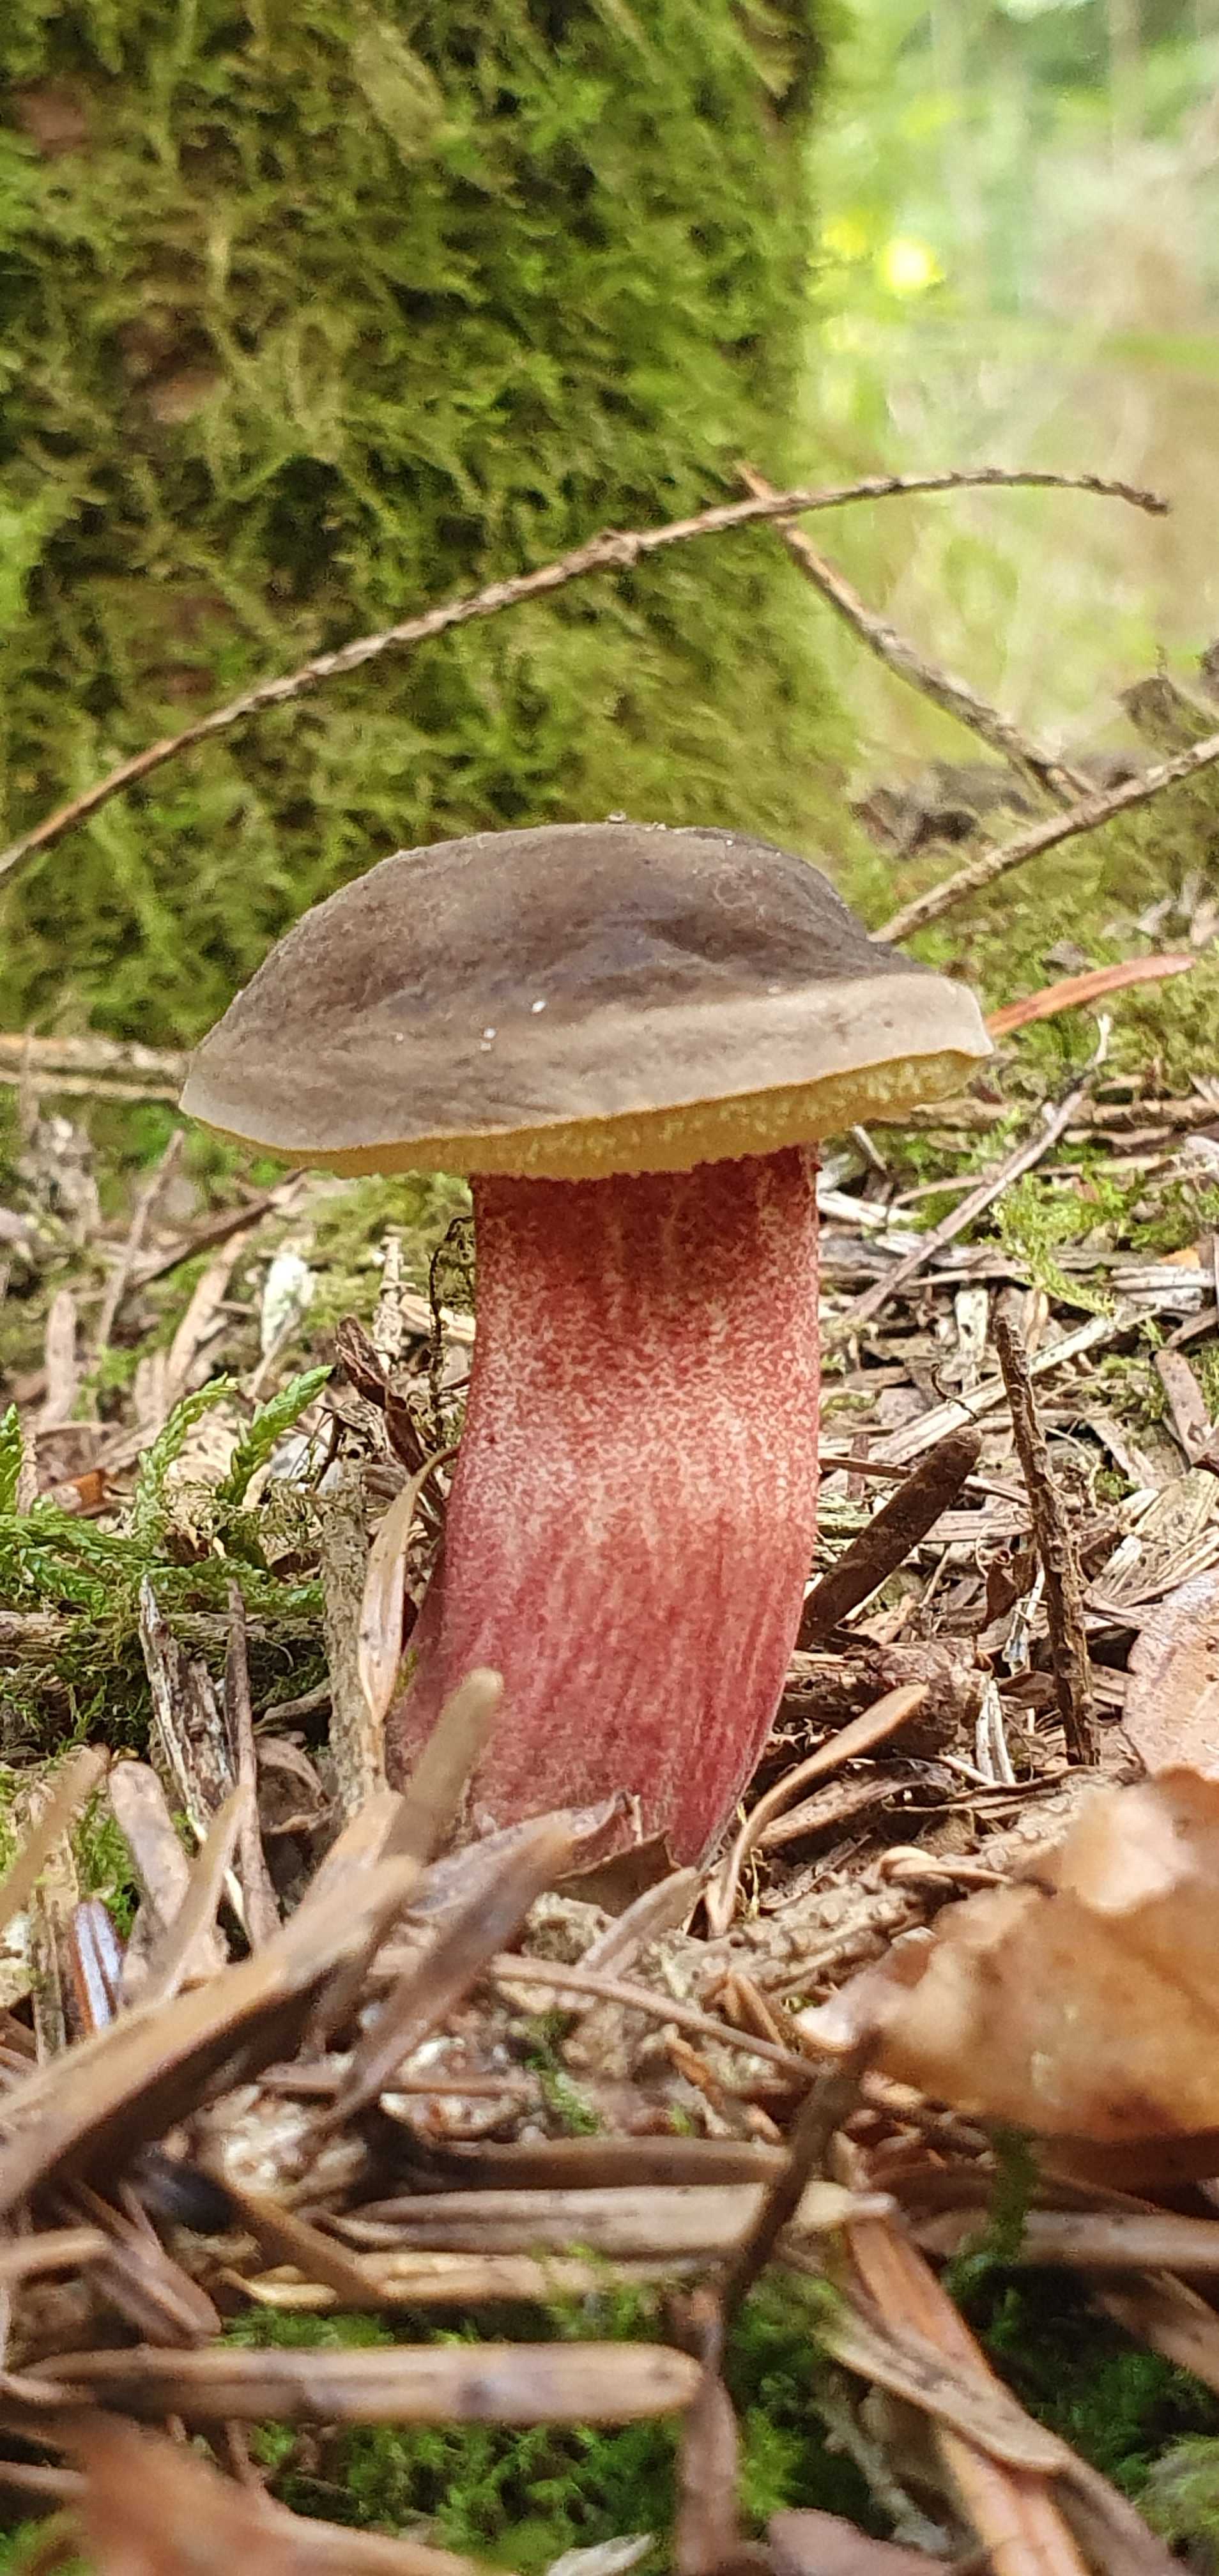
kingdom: Fungi
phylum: Basidiomycota
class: Agaricomycetes
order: Boletales
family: Boletaceae
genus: Neoboletus
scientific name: Neoboletus erythropus
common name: punktstokket indigorørhat
